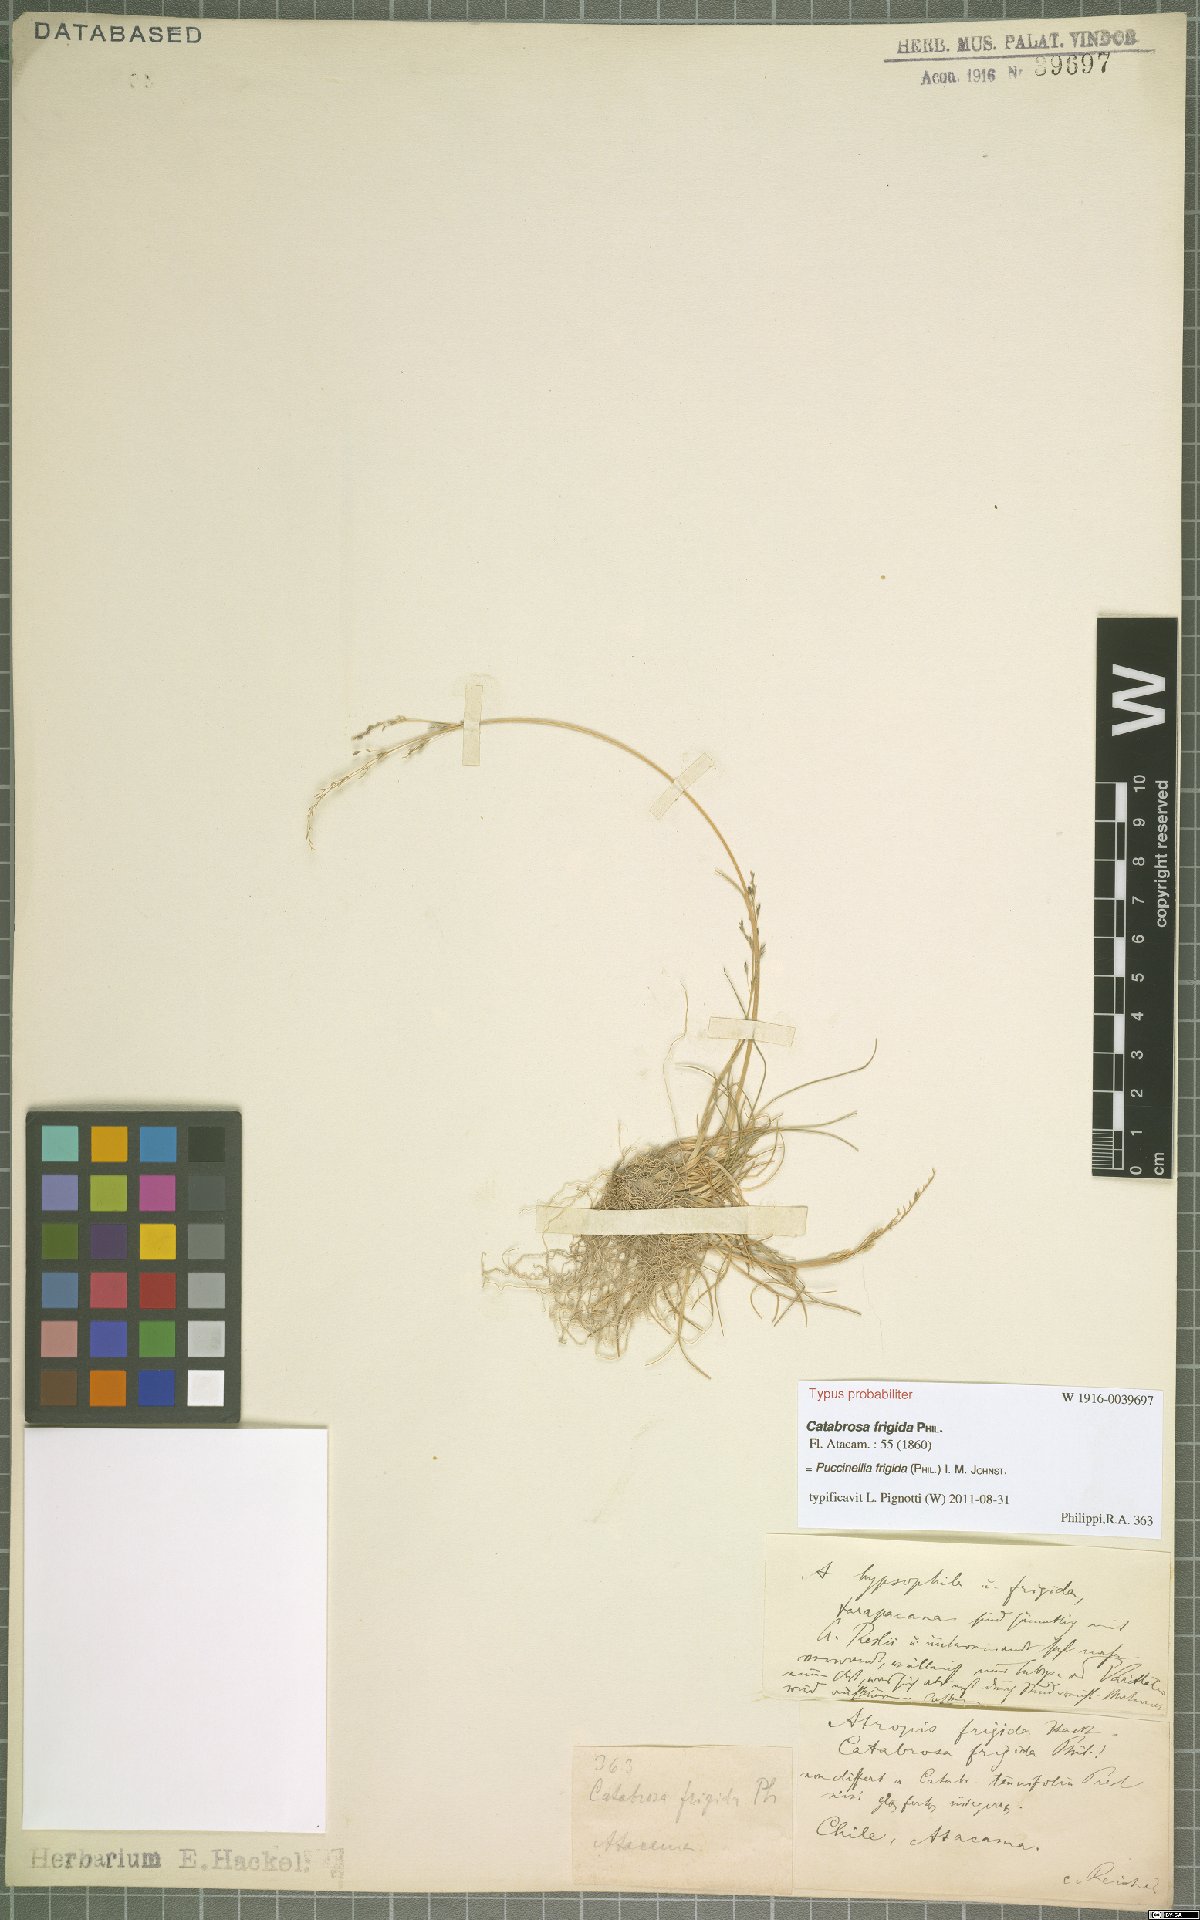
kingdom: Plantae
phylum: Tracheophyta
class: Liliopsida
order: Poales
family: Poaceae
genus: Puccinellia
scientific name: Puccinellia frigida
